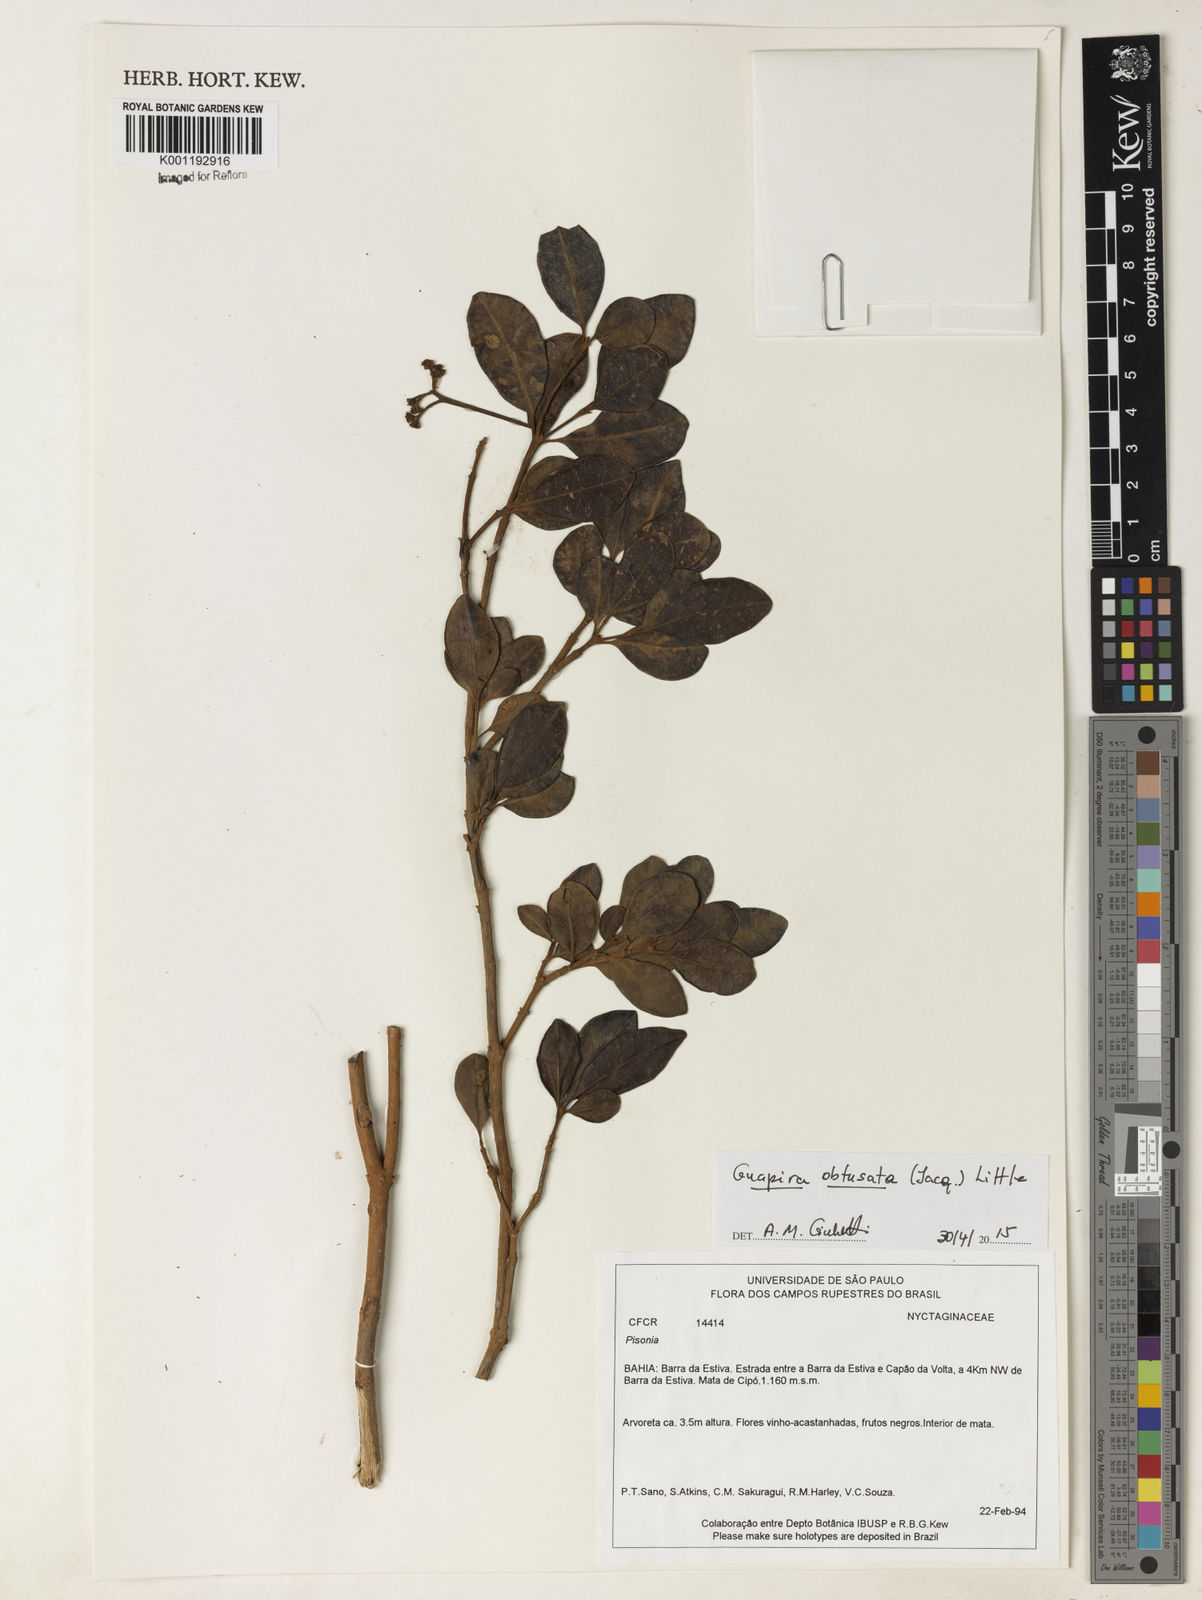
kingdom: Plantae
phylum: Tracheophyta
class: Magnoliopsida
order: Caryophyllales
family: Nyctaginaceae
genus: Guapira
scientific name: Guapira obtusata
